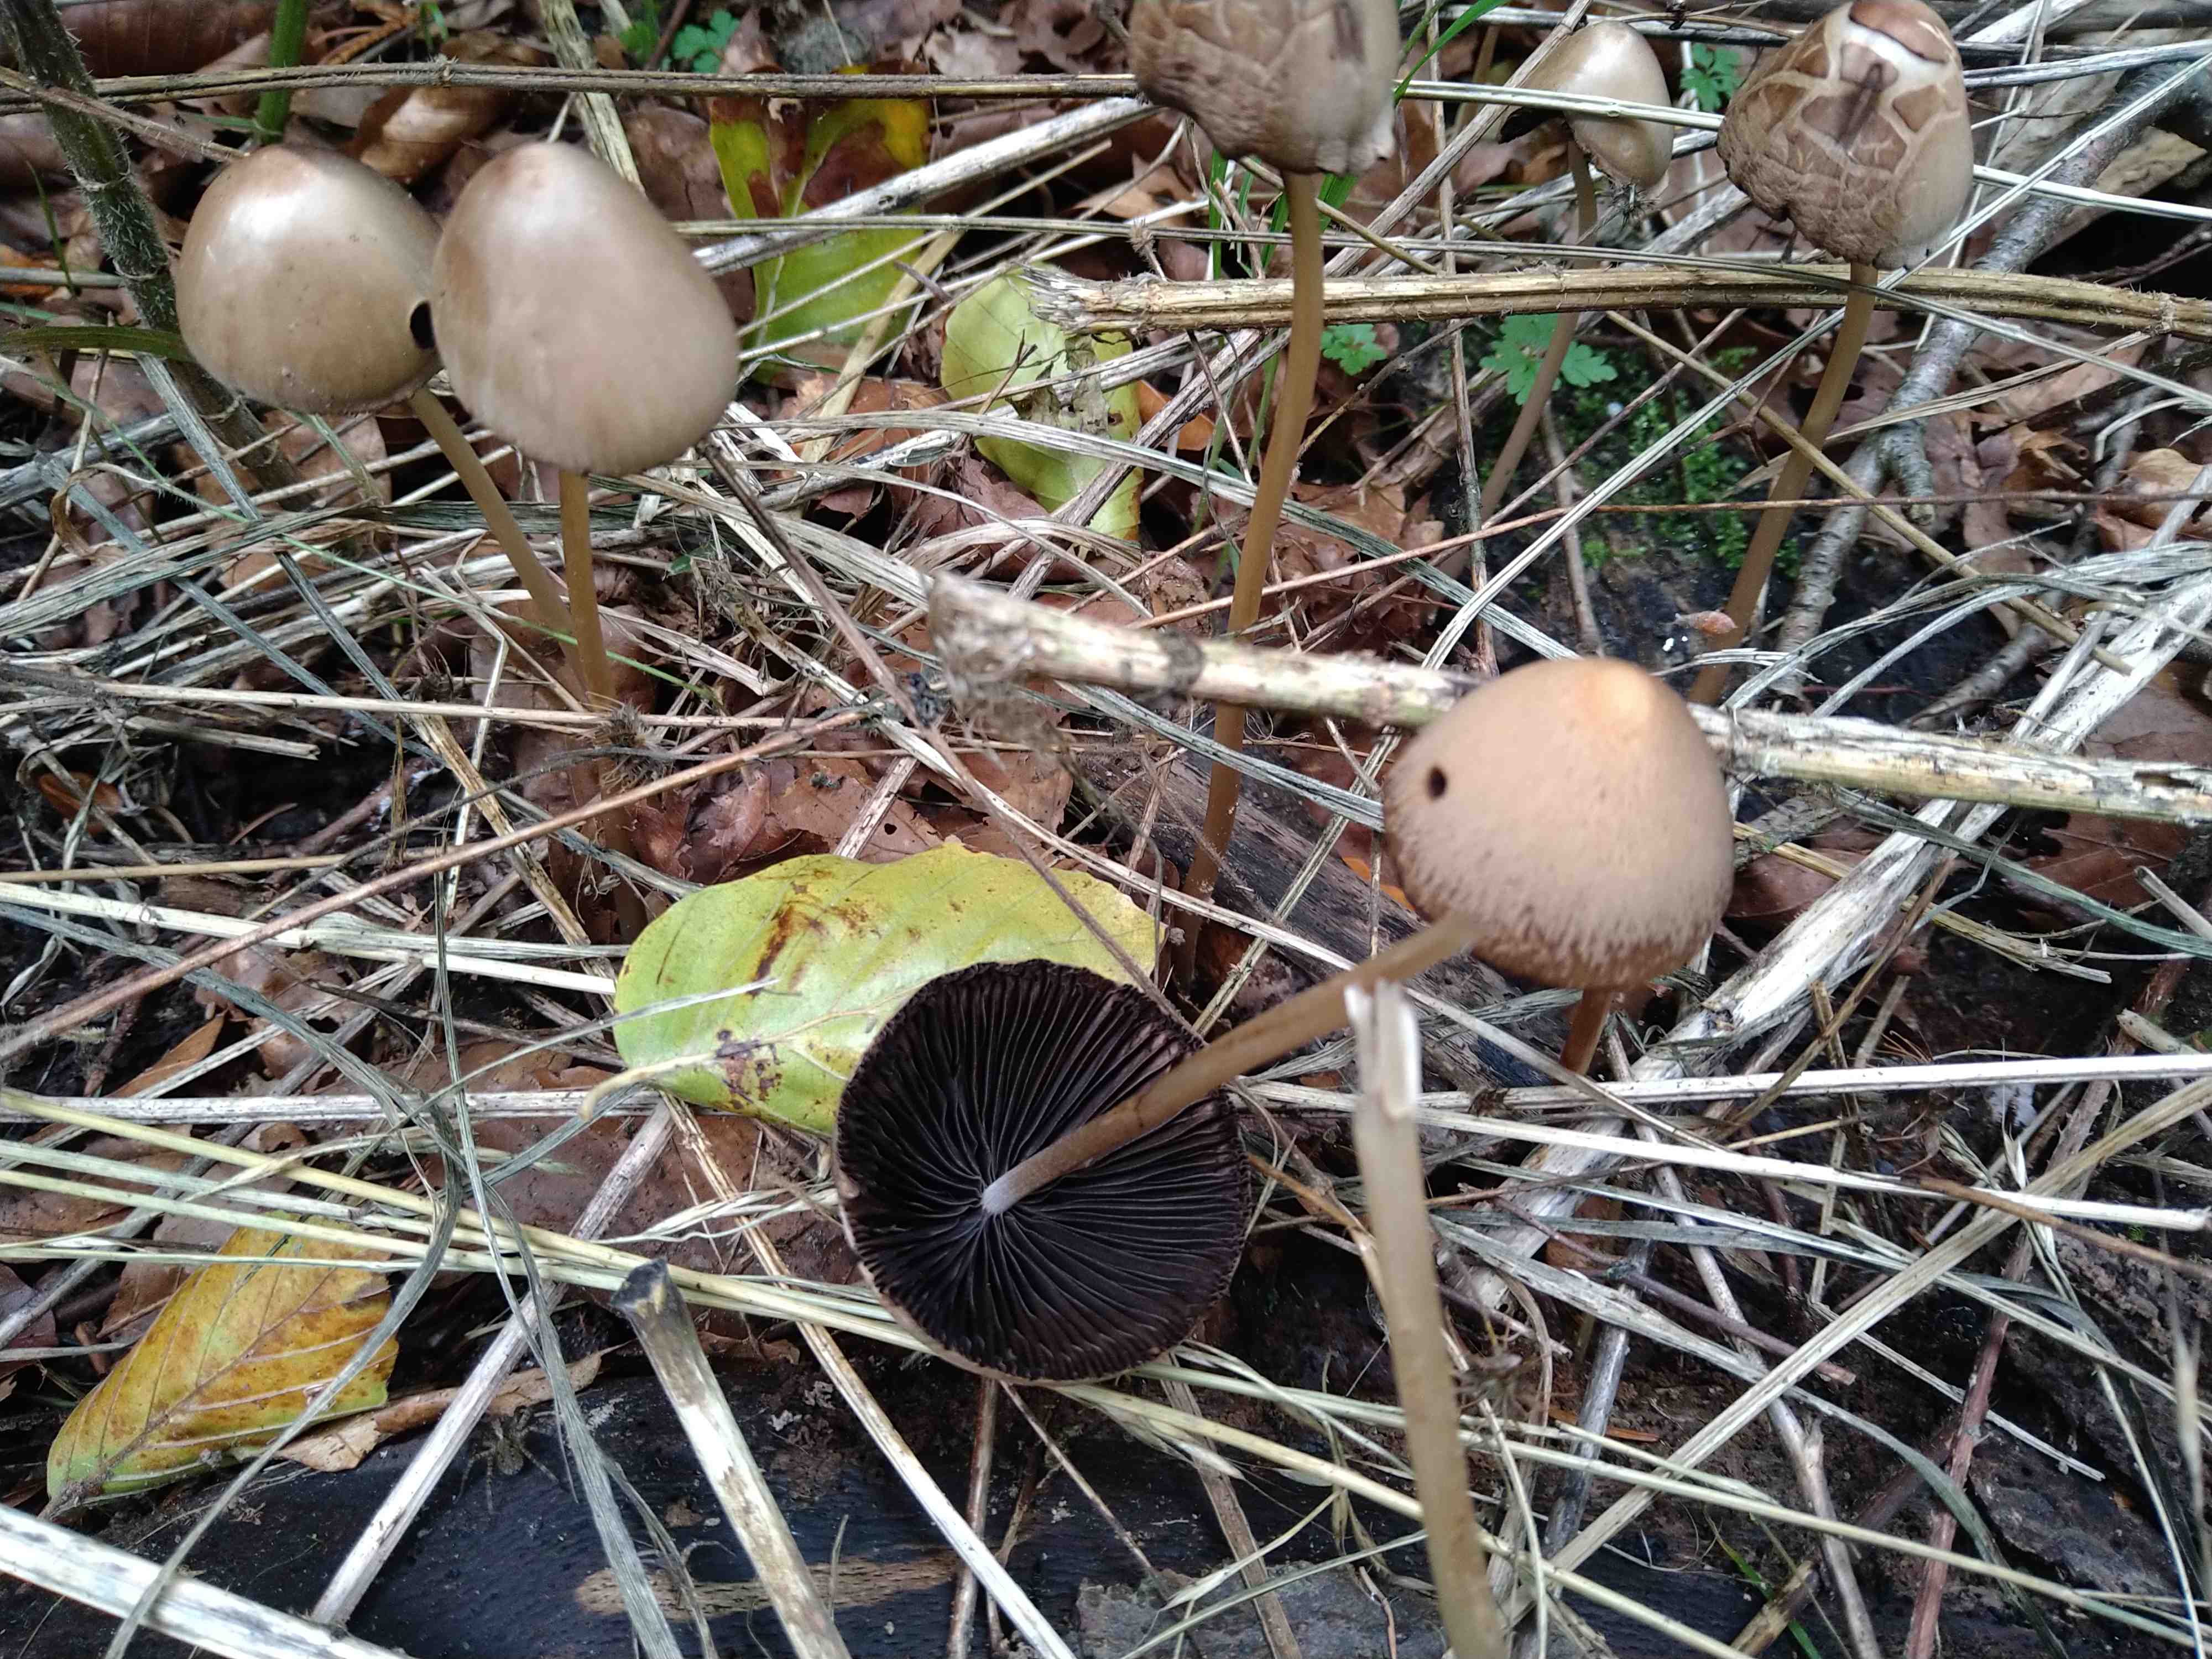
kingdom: Fungi
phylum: Basidiomycota
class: Agaricomycetes
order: Agaricales
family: Psathyrellaceae
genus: Parasola
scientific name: Parasola conopilea
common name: kegle-hjulhat
